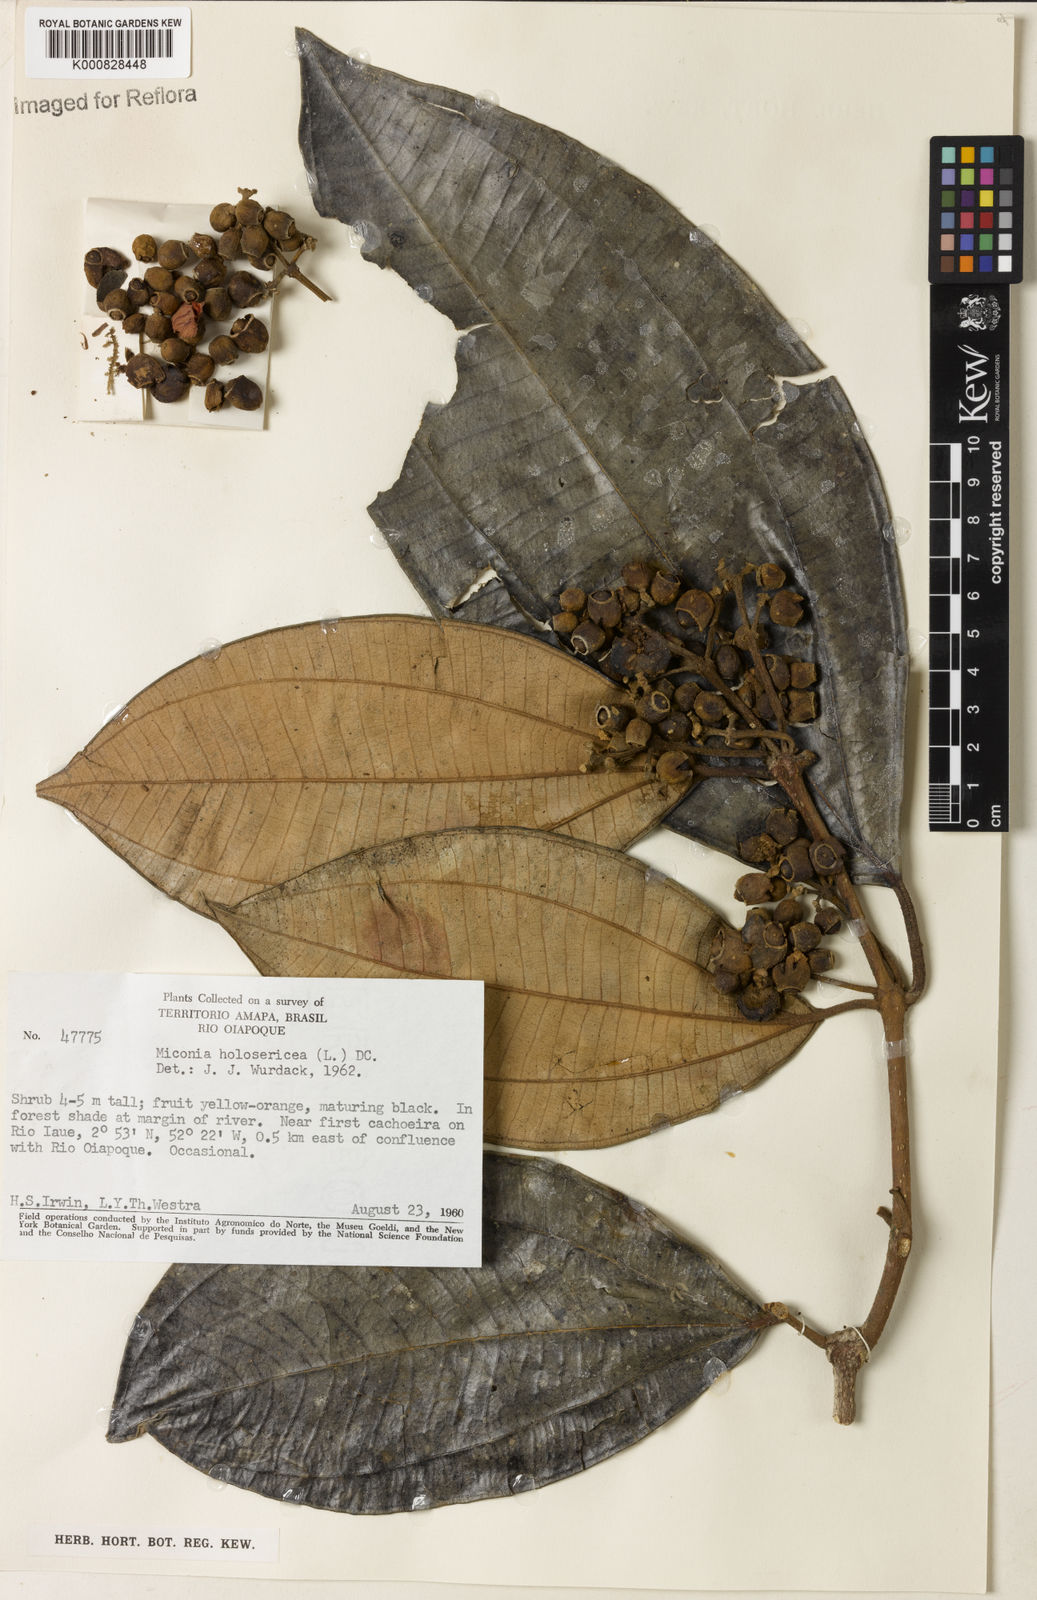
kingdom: Plantae
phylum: Tracheophyta
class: Magnoliopsida
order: Myrtales
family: Melastomataceae
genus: Miconia
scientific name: Miconia holosericea
